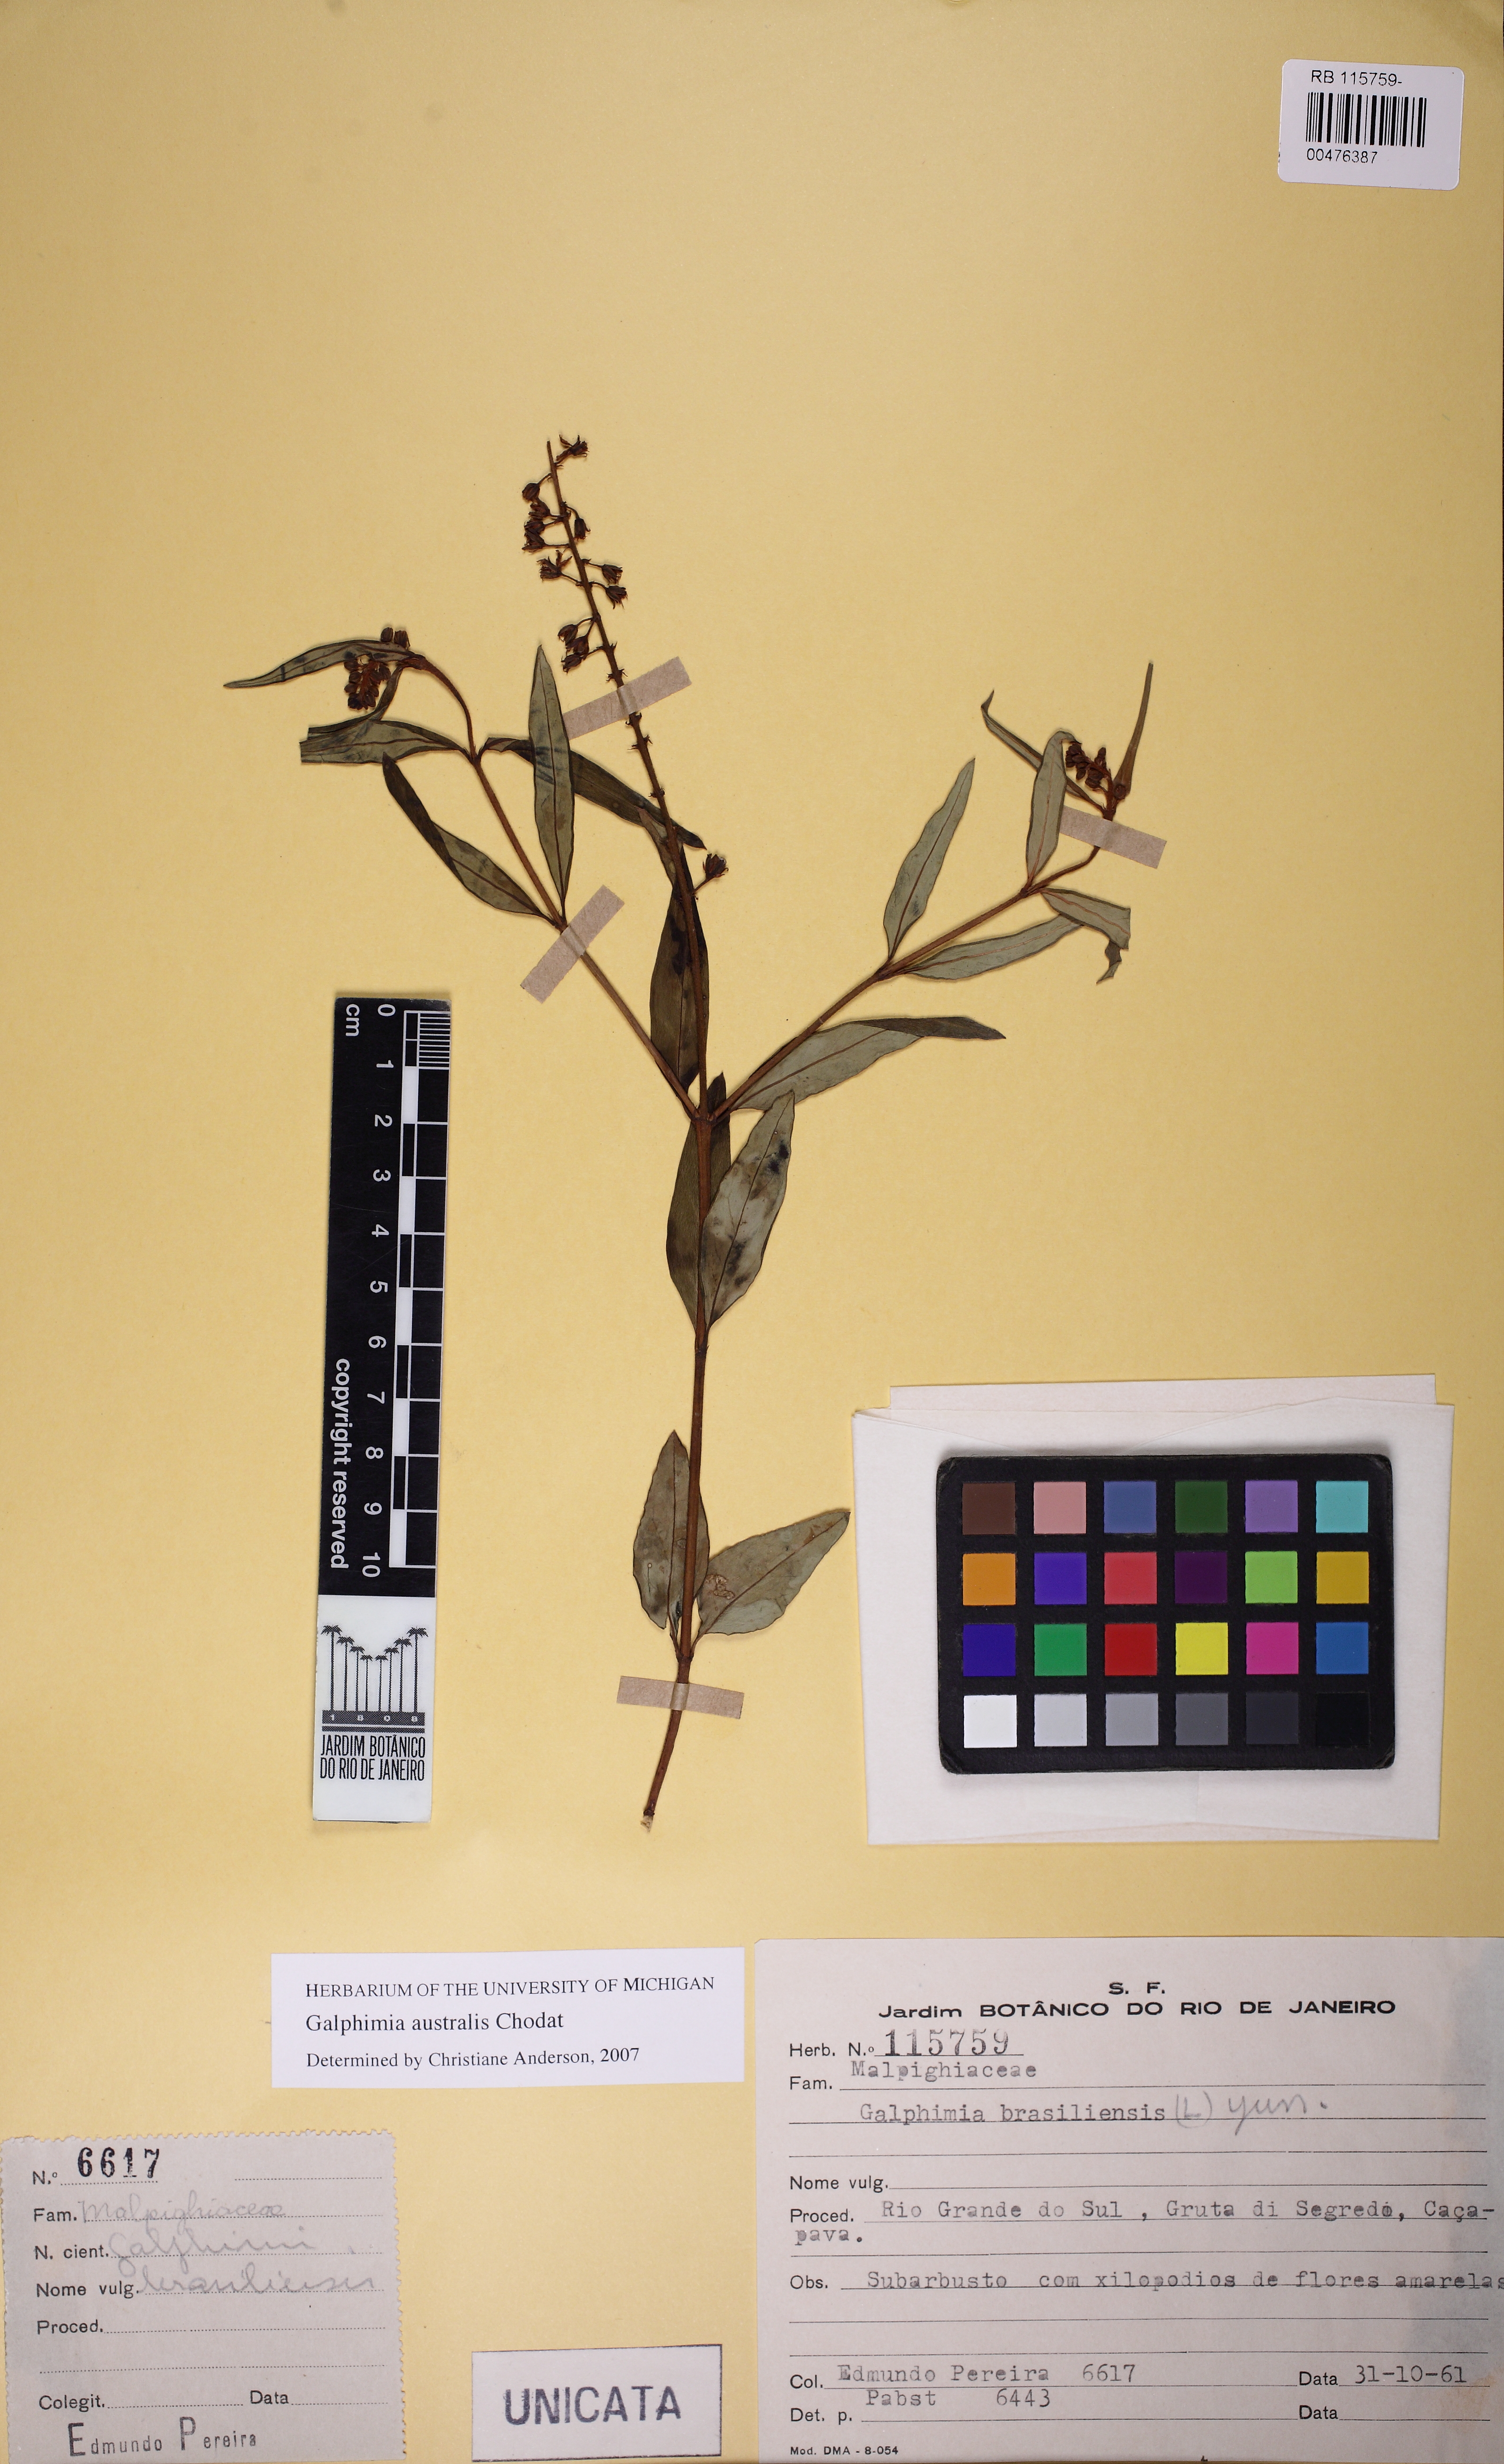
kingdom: Plantae
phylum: Tracheophyta
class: Magnoliopsida
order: Malpighiales
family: Malpighiaceae
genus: Galphimia
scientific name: Galphimia australis
